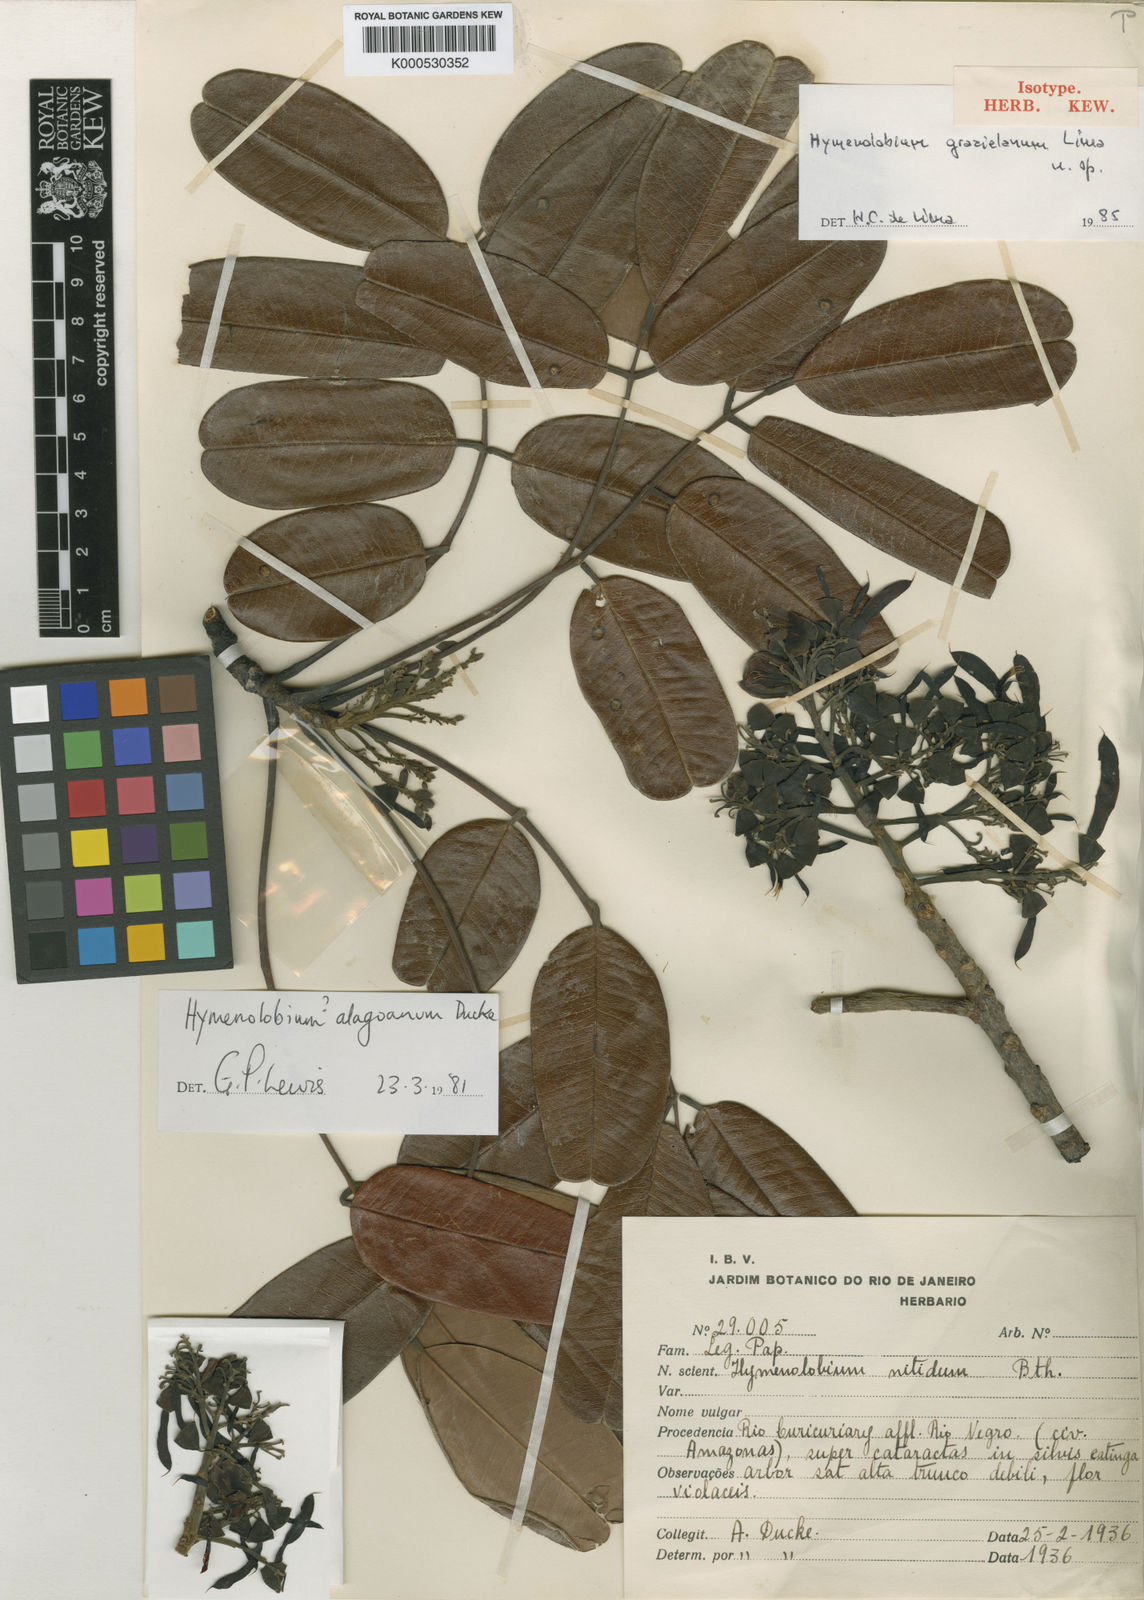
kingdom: Plantae
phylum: Tracheophyta
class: Magnoliopsida
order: Fabales
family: Fabaceae
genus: Hymenolobium
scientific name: Hymenolobium grazielanum
